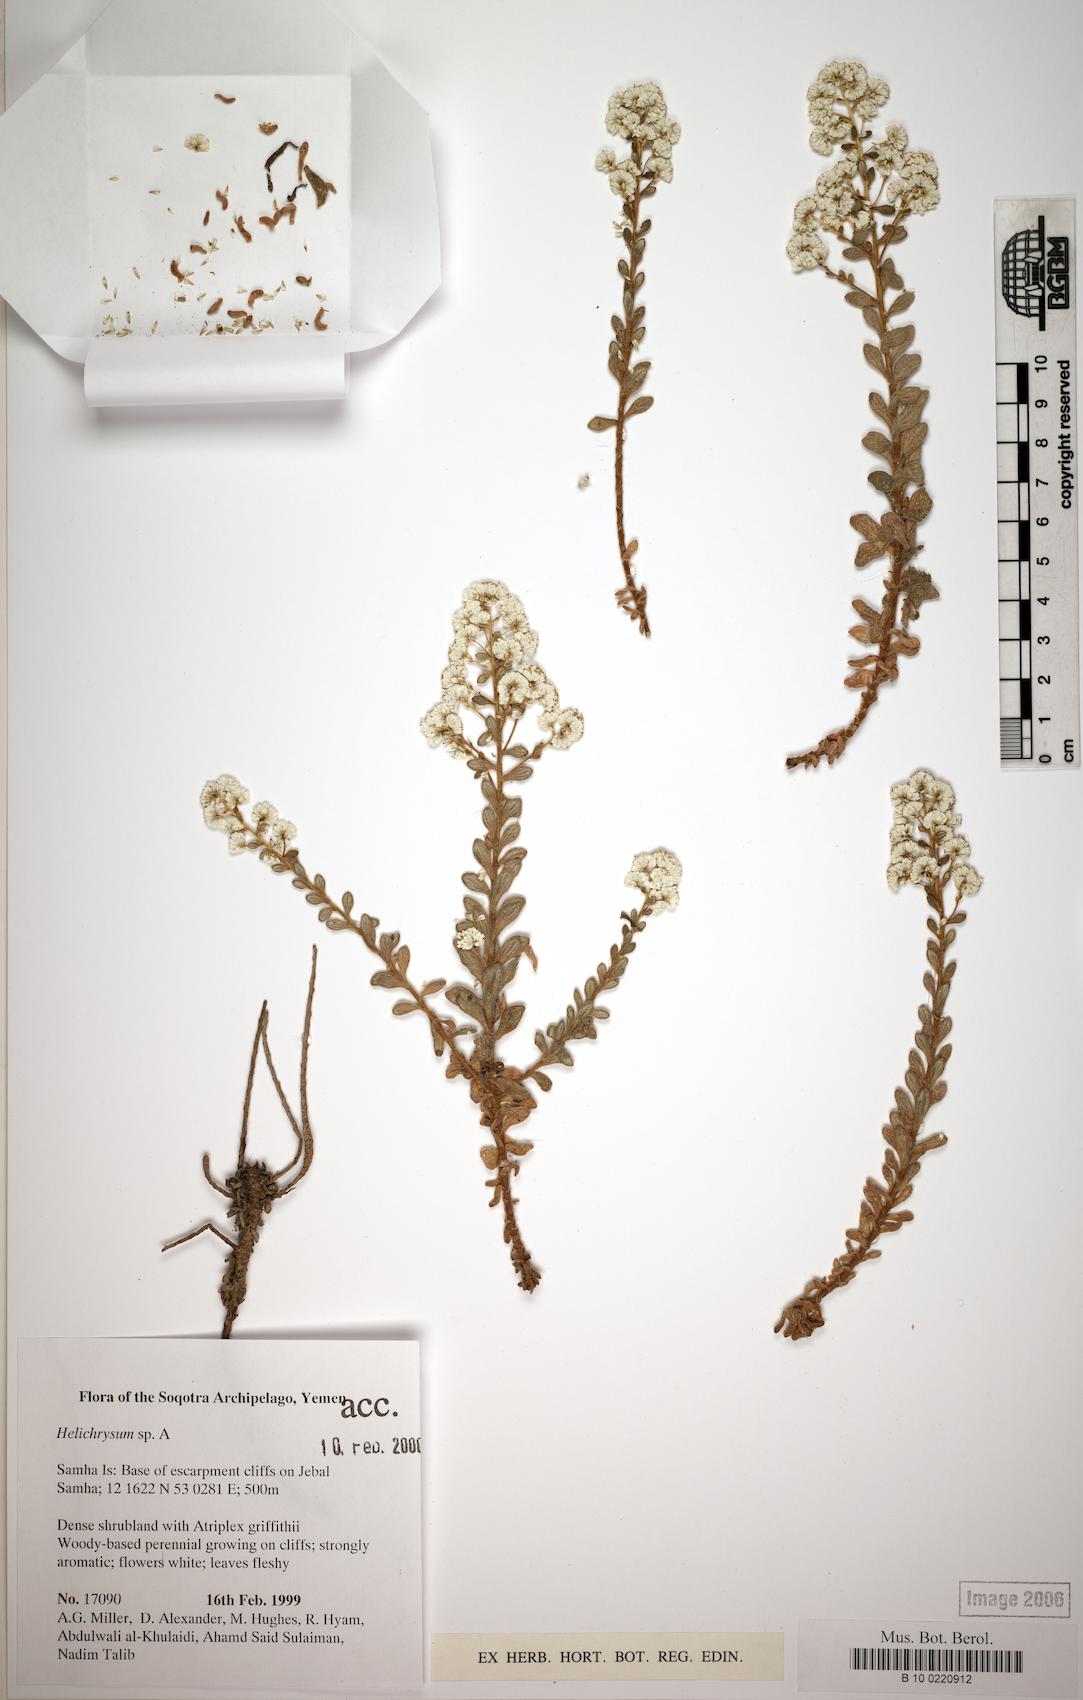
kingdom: Plantae
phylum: Tracheophyta
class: Magnoliopsida
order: Asterales
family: Asteraceae
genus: Libinhania
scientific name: Libinhania nivea
